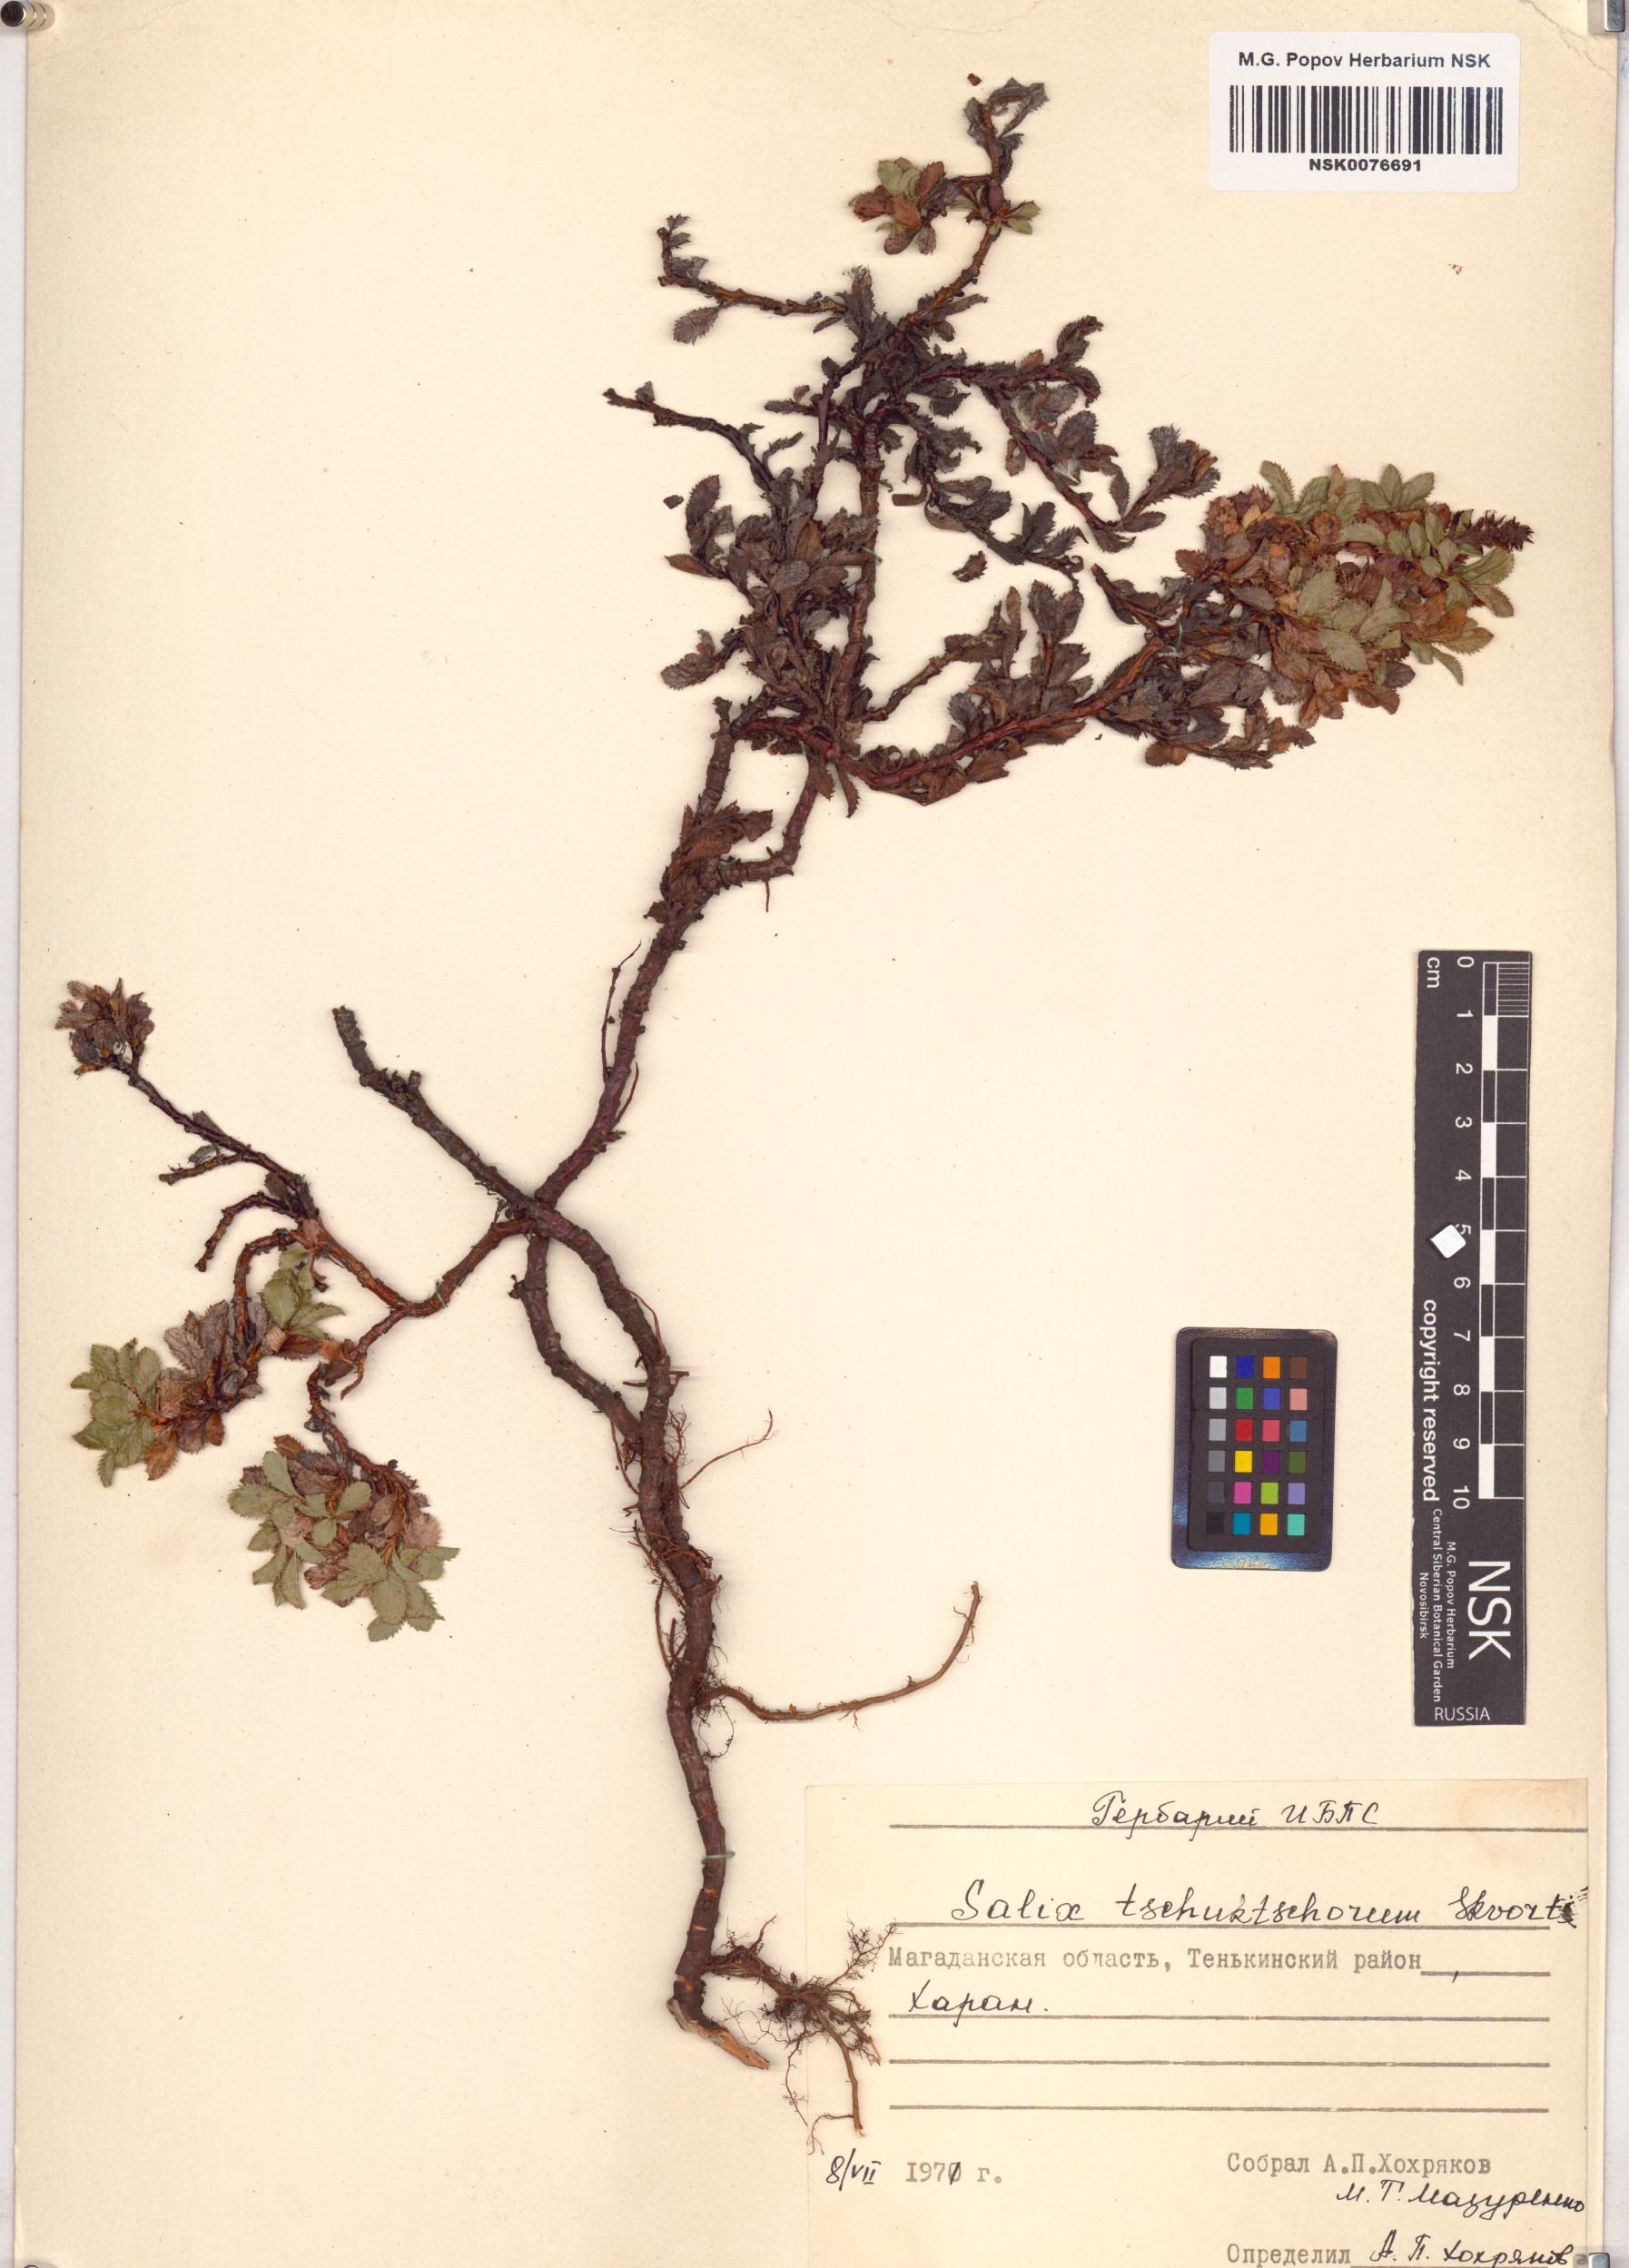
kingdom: Plantae
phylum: Tracheophyta
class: Magnoliopsida
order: Malpighiales
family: Salicaceae
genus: Salix
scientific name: Salix tschuktschorum
